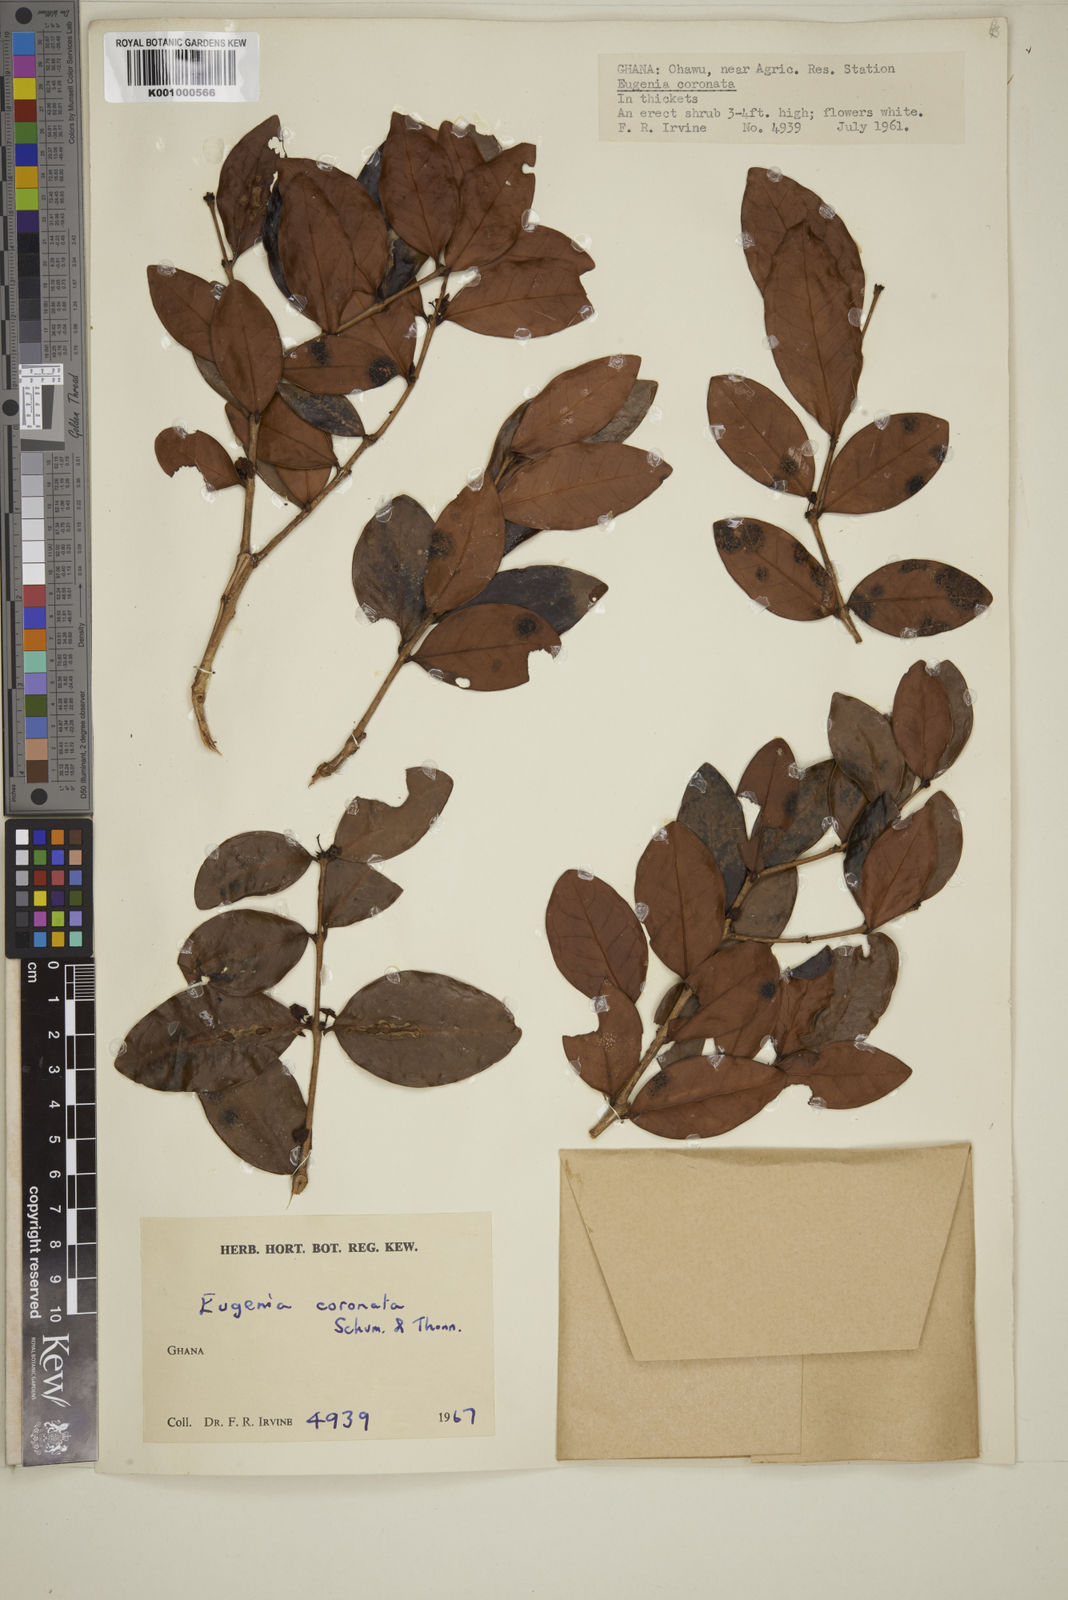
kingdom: Plantae
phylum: Tracheophyta
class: Magnoliopsida
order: Myrtales
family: Myrtaceae
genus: Eugenia
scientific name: Eugenia coronata
